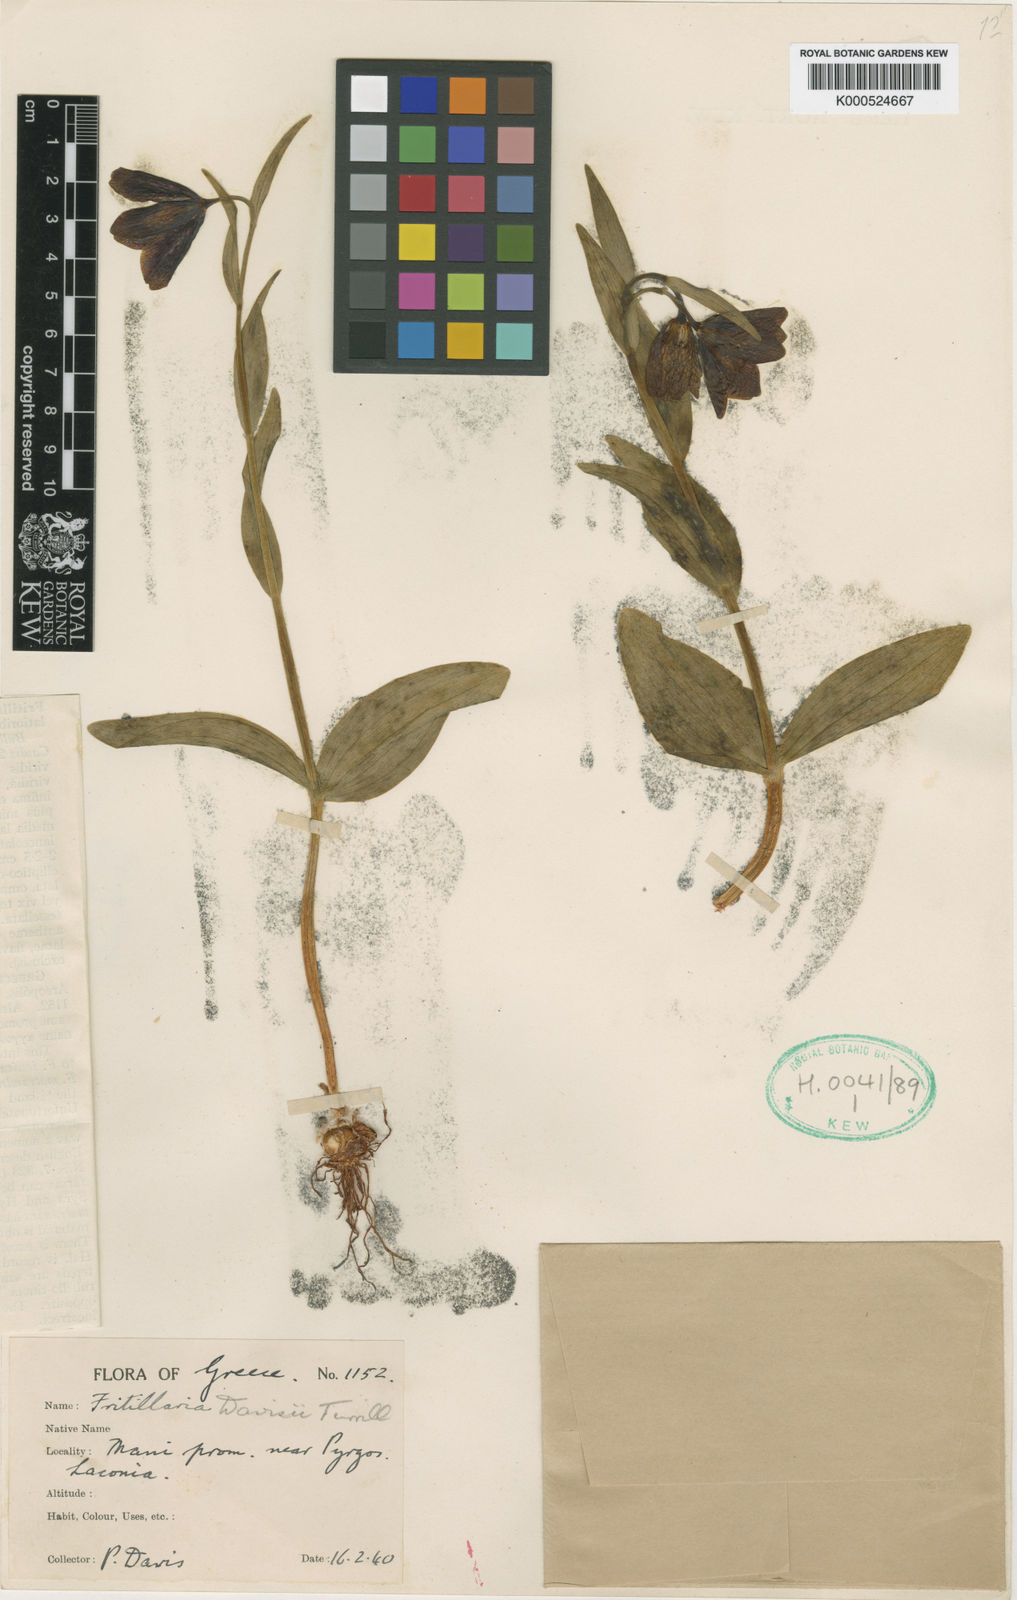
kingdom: Plantae
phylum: Tracheophyta
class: Liliopsida
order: Liliales
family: Liliaceae
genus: Fritillaria
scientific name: Fritillaria davisii
